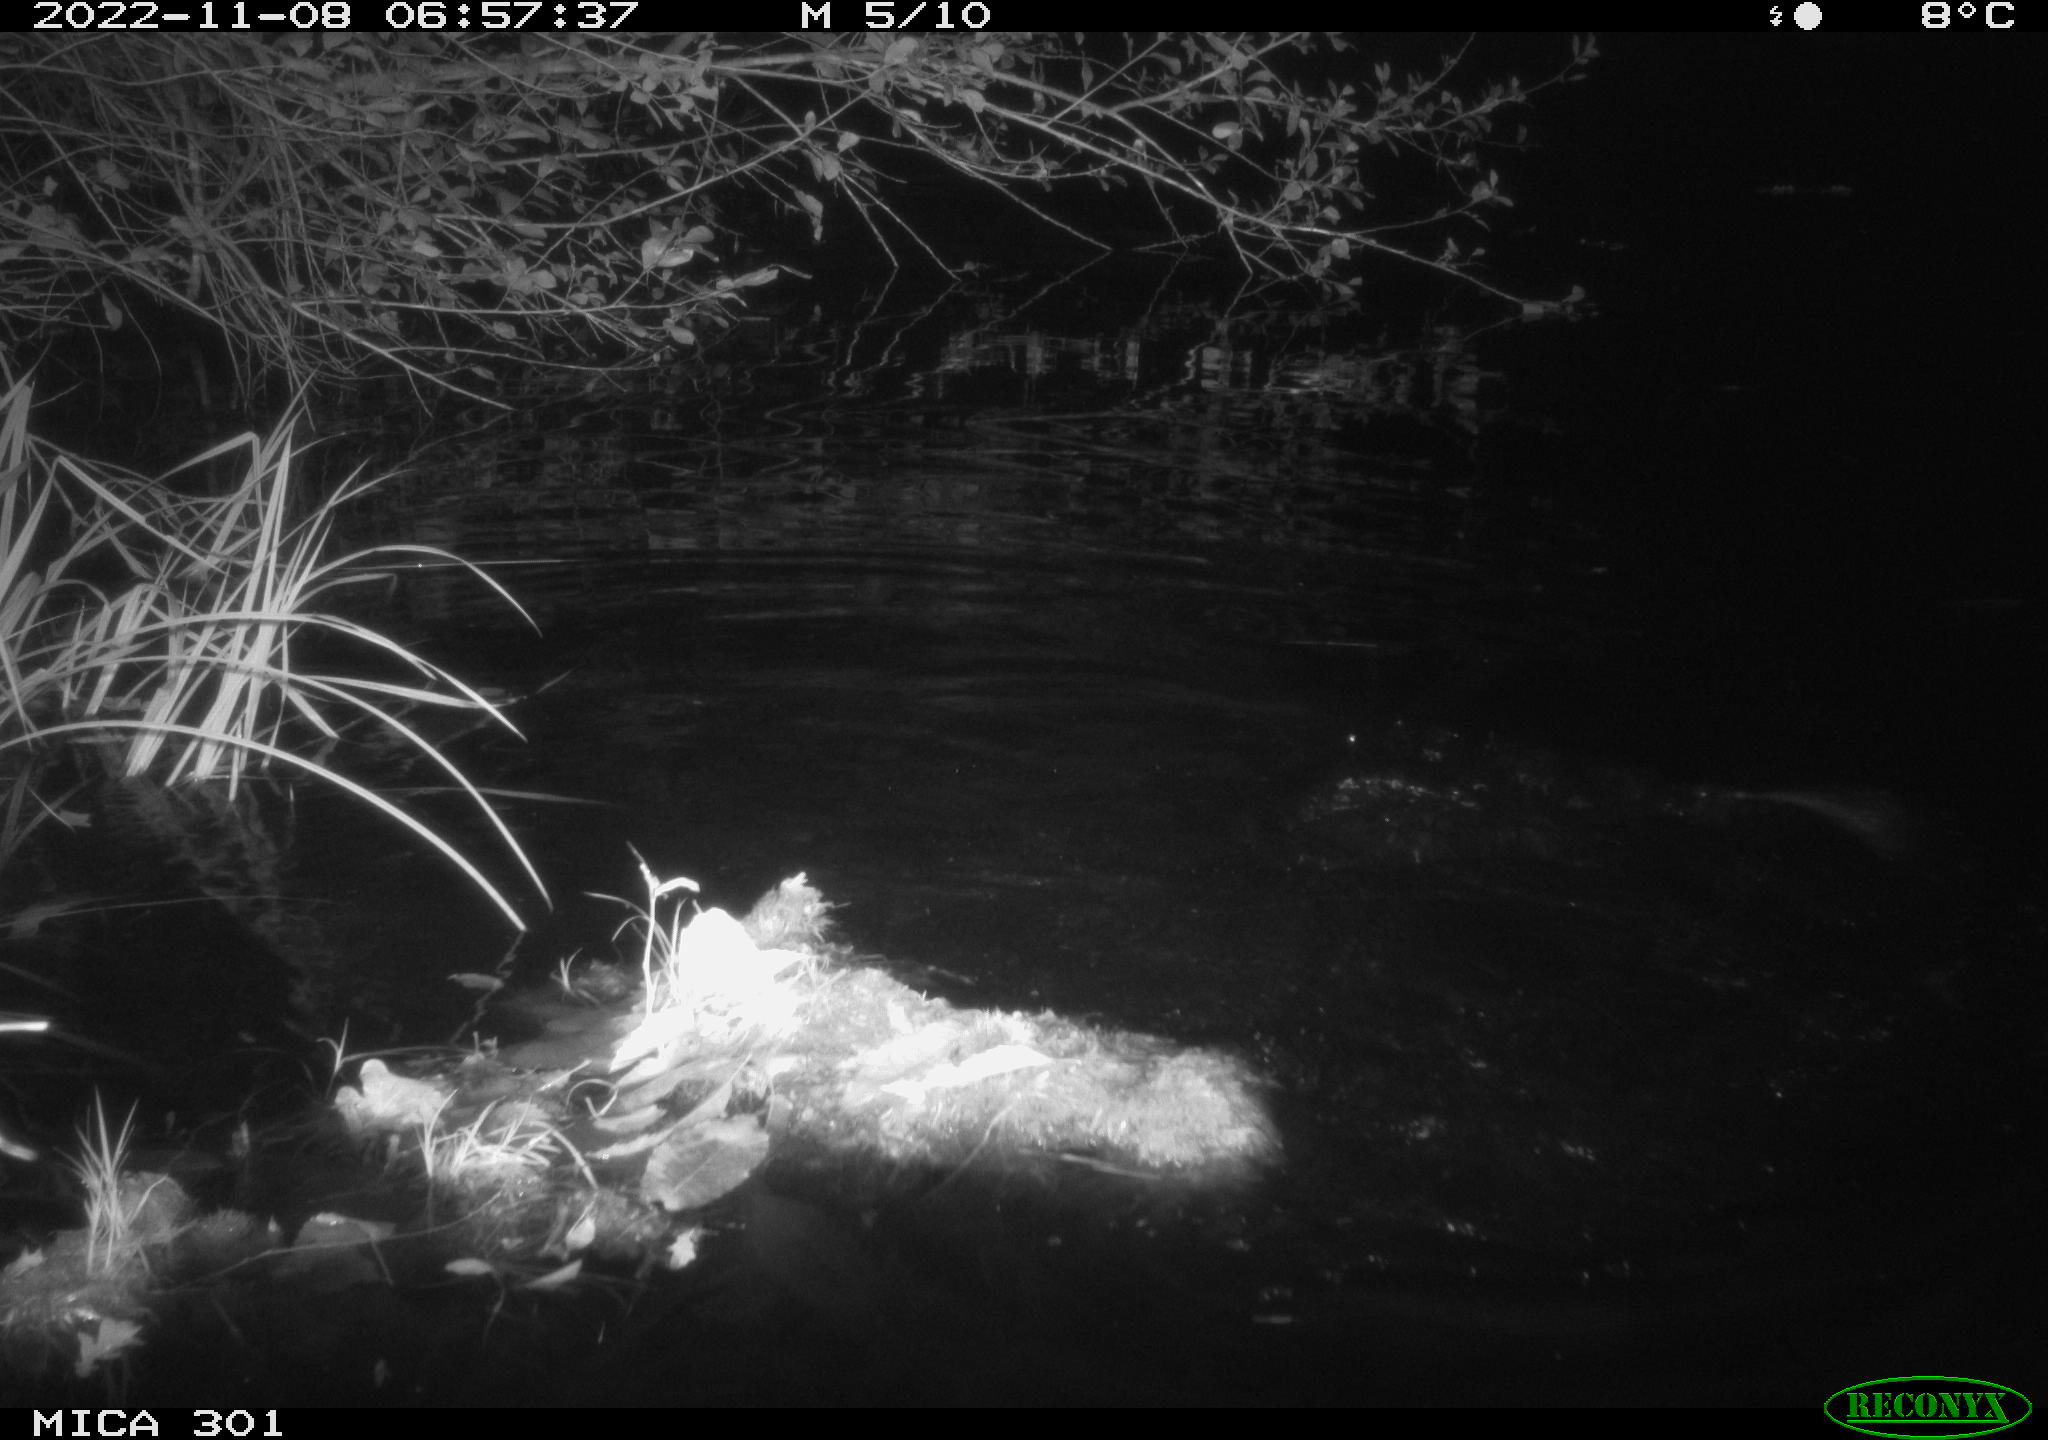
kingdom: Animalia
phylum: Chordata
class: Mammalia
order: Rodentia
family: Castoridae
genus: Castor
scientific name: Castor fiber
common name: Eurasian beaver
